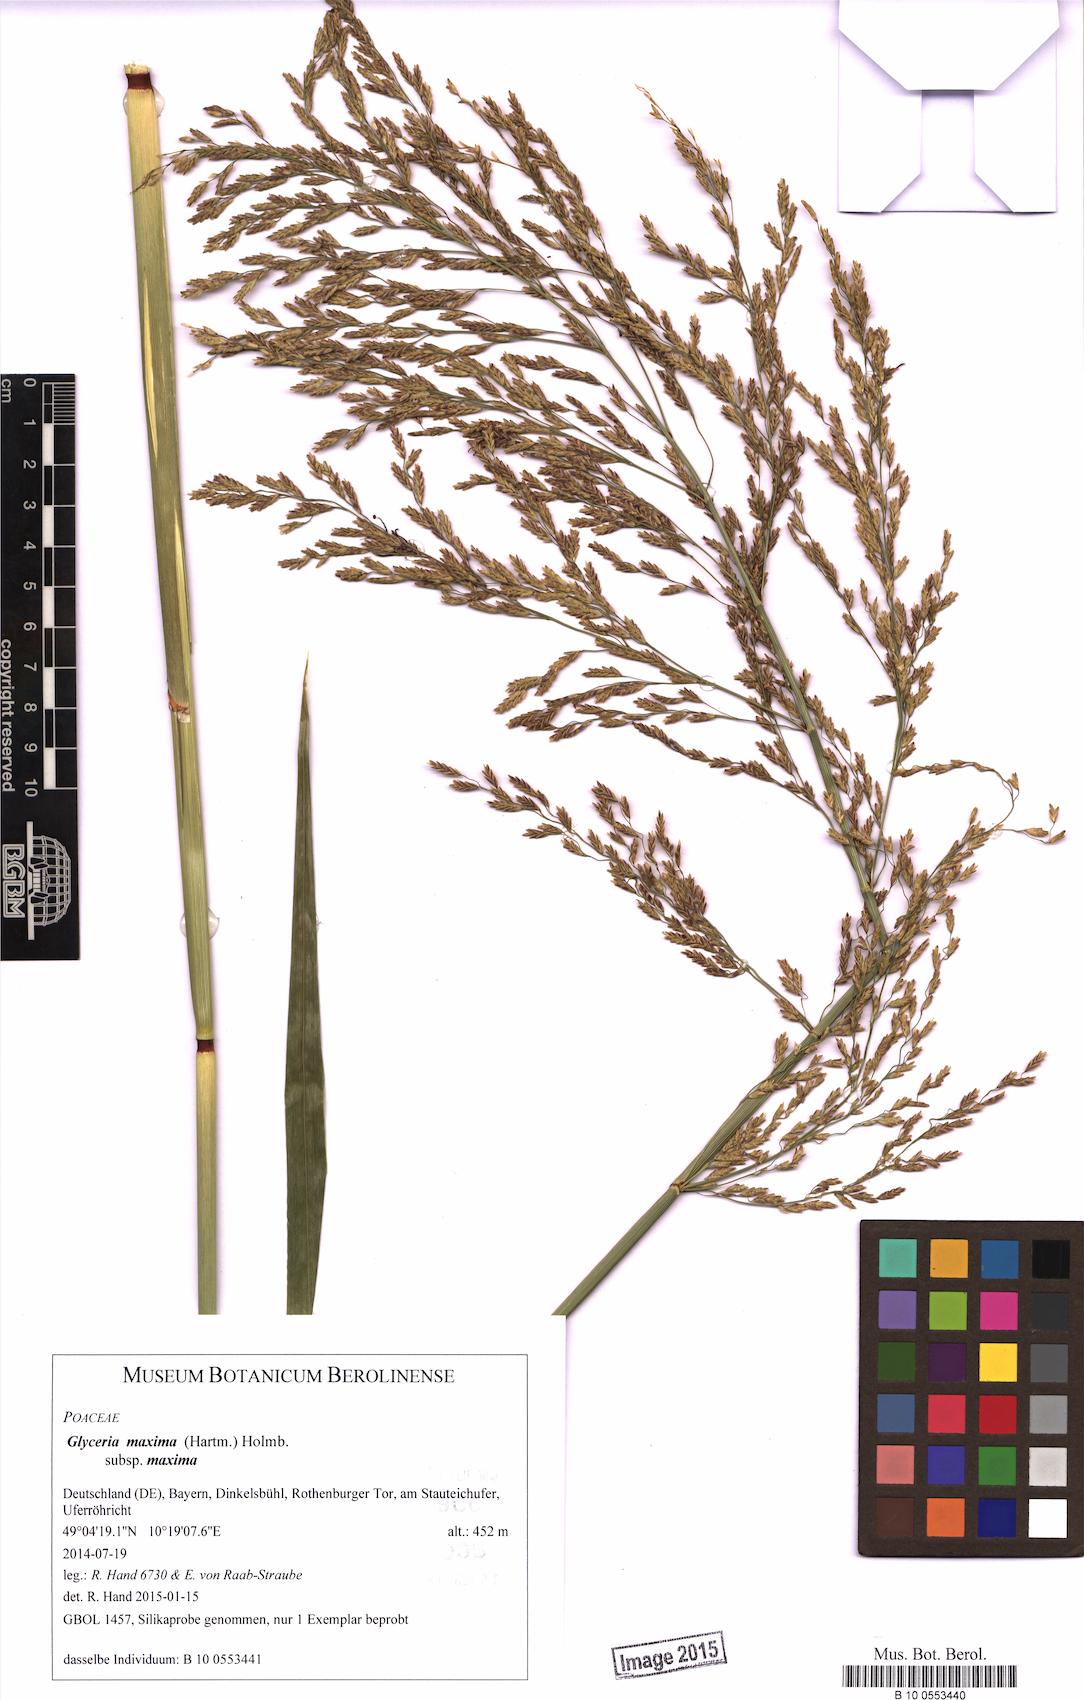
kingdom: Plantae
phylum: Tracheophyta
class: Liliopsida
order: Poales
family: Poaceae
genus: Glyceria
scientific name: Glyceria maxima
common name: Reed mannagrass
